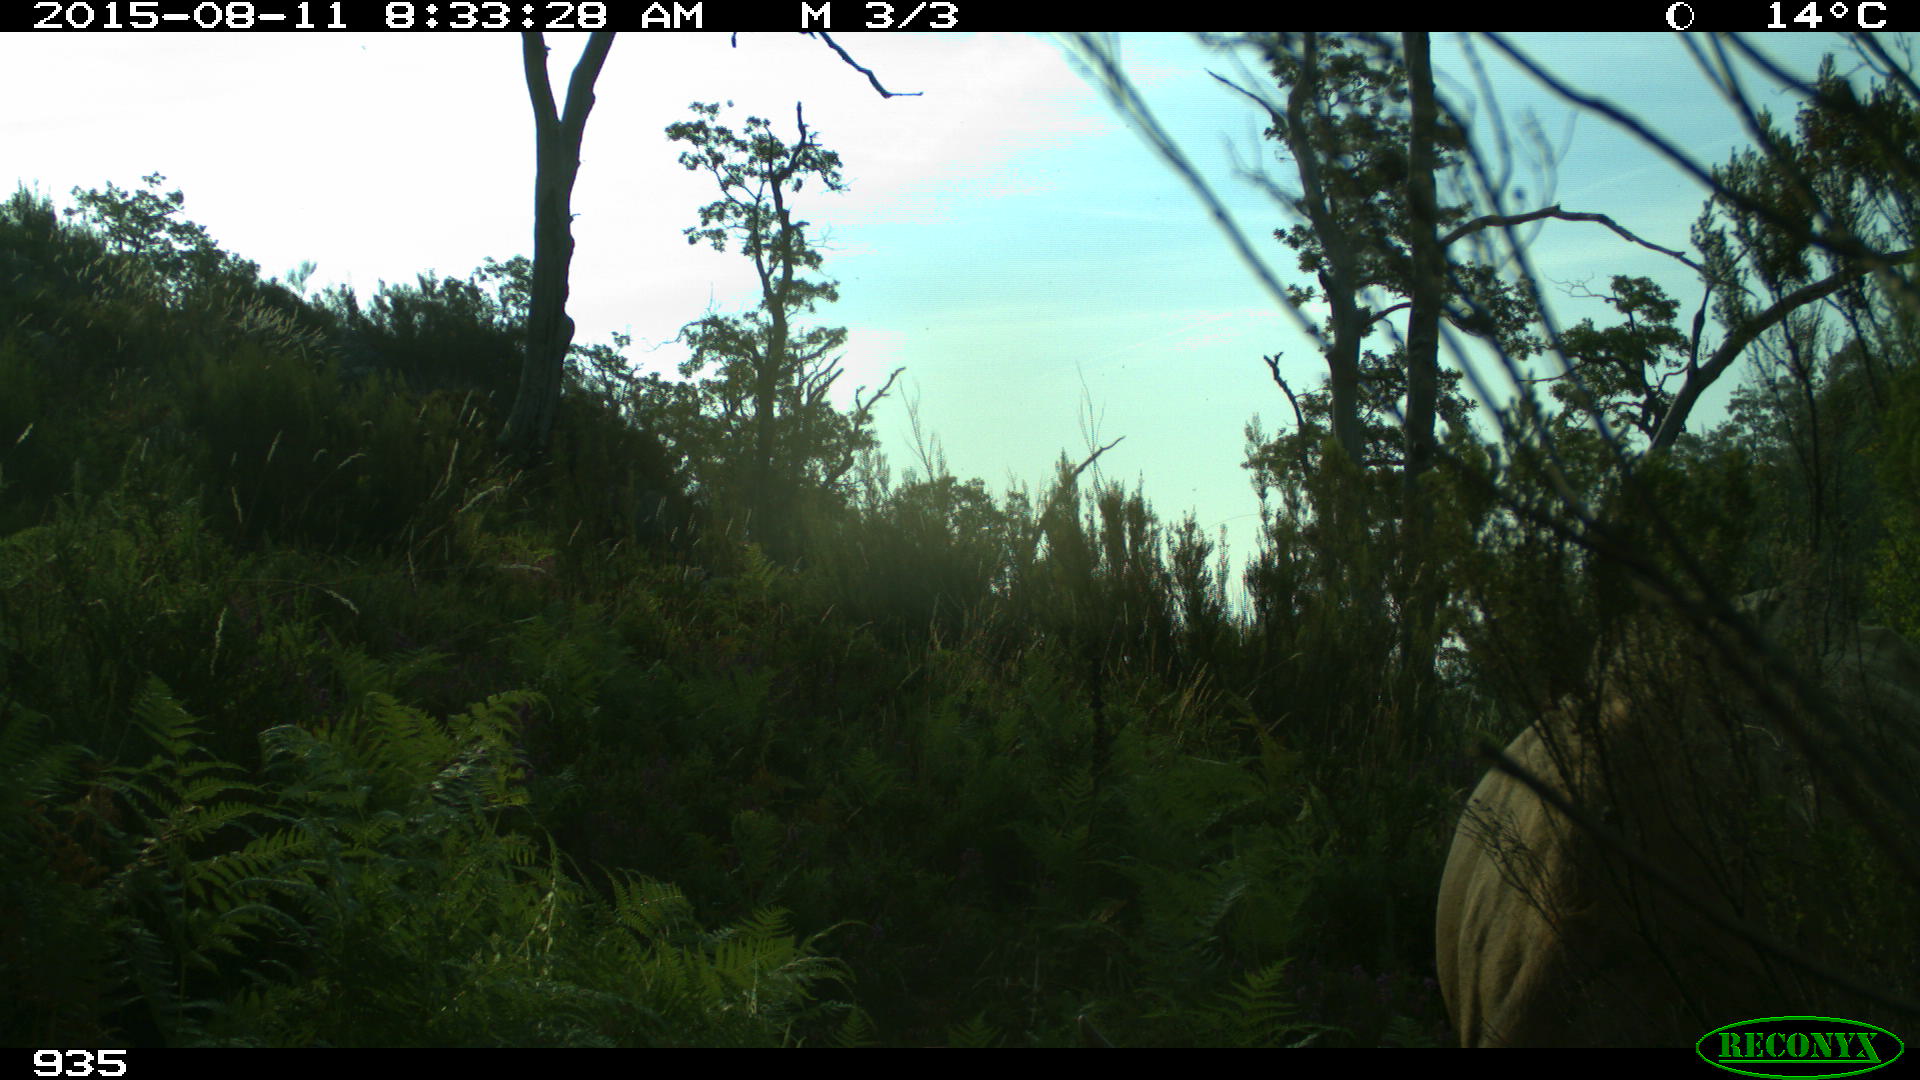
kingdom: Animalia
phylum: Chordata
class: Mammalia
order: Artiodactyla
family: Bovidae
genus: Bos
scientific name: Bos taurus
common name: Domesticated cattle
